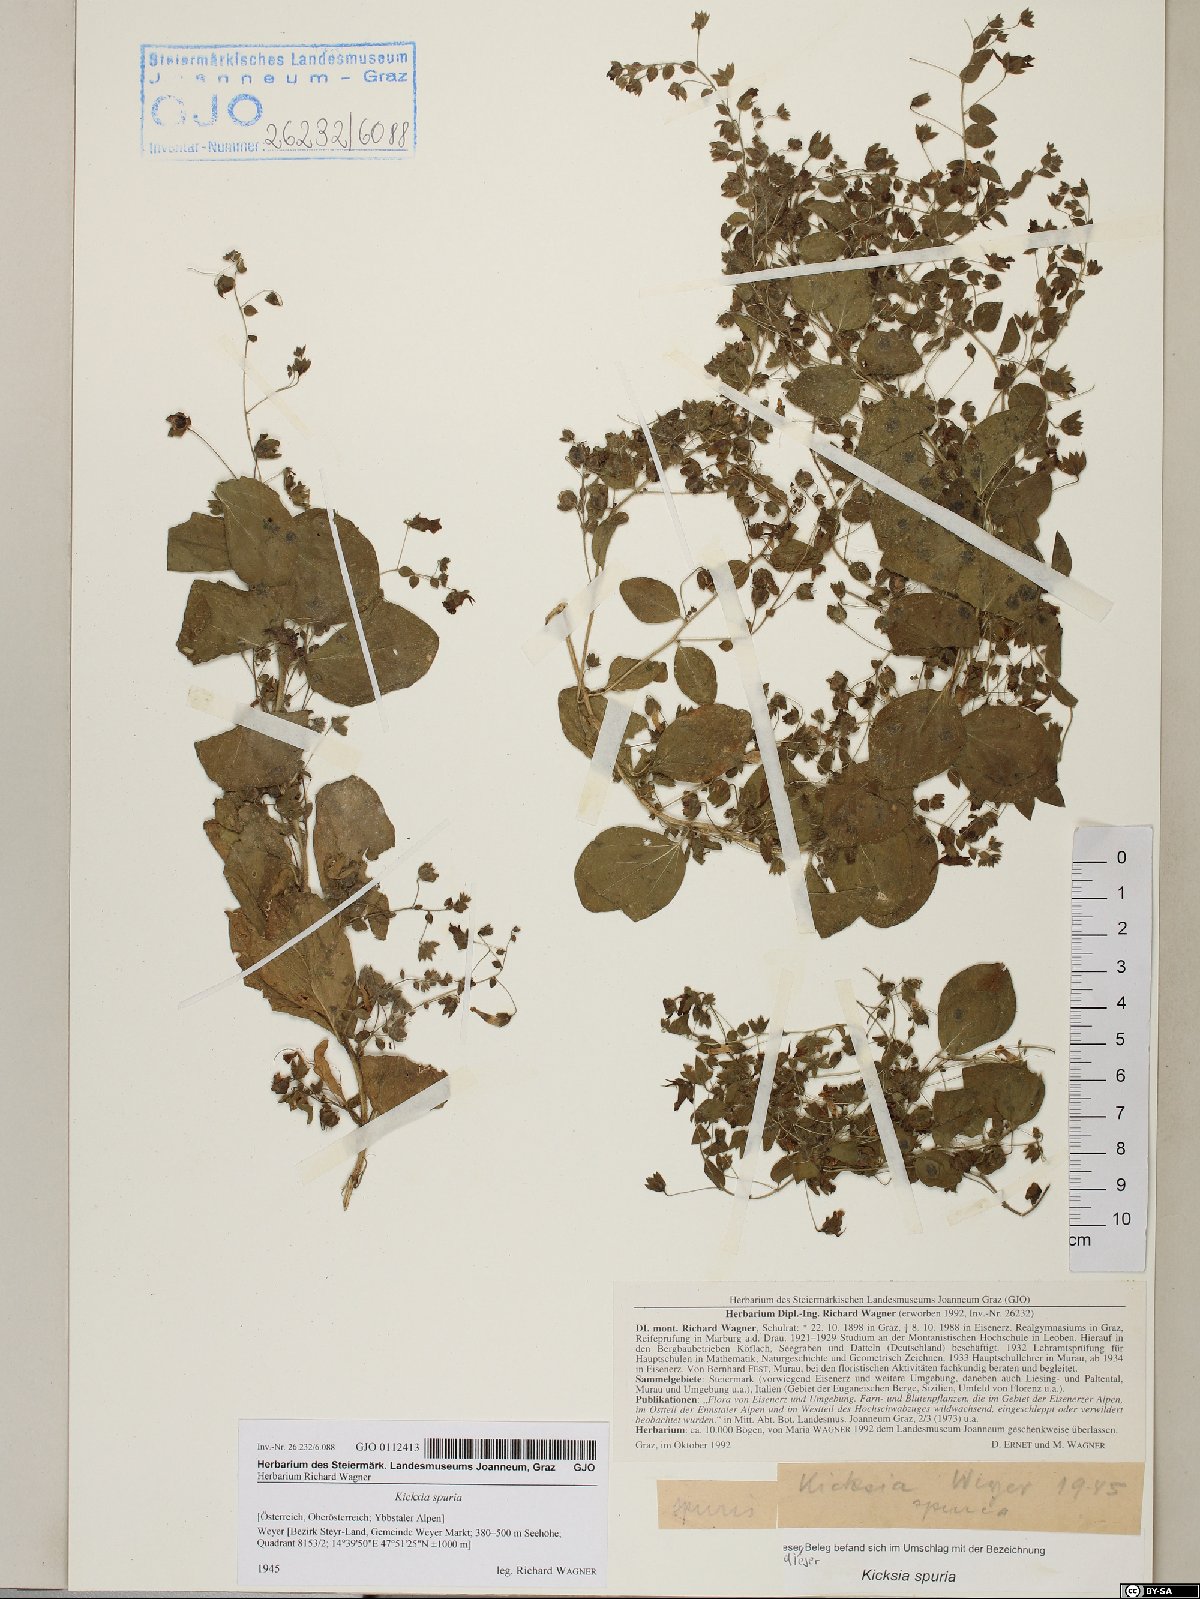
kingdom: Plantae
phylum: Tracheophyta
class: Magnoliopsida
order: Lamiales
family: Plantaginaceae
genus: Kickxia
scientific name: Kickxia spuria
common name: Round-leaved fluellen
